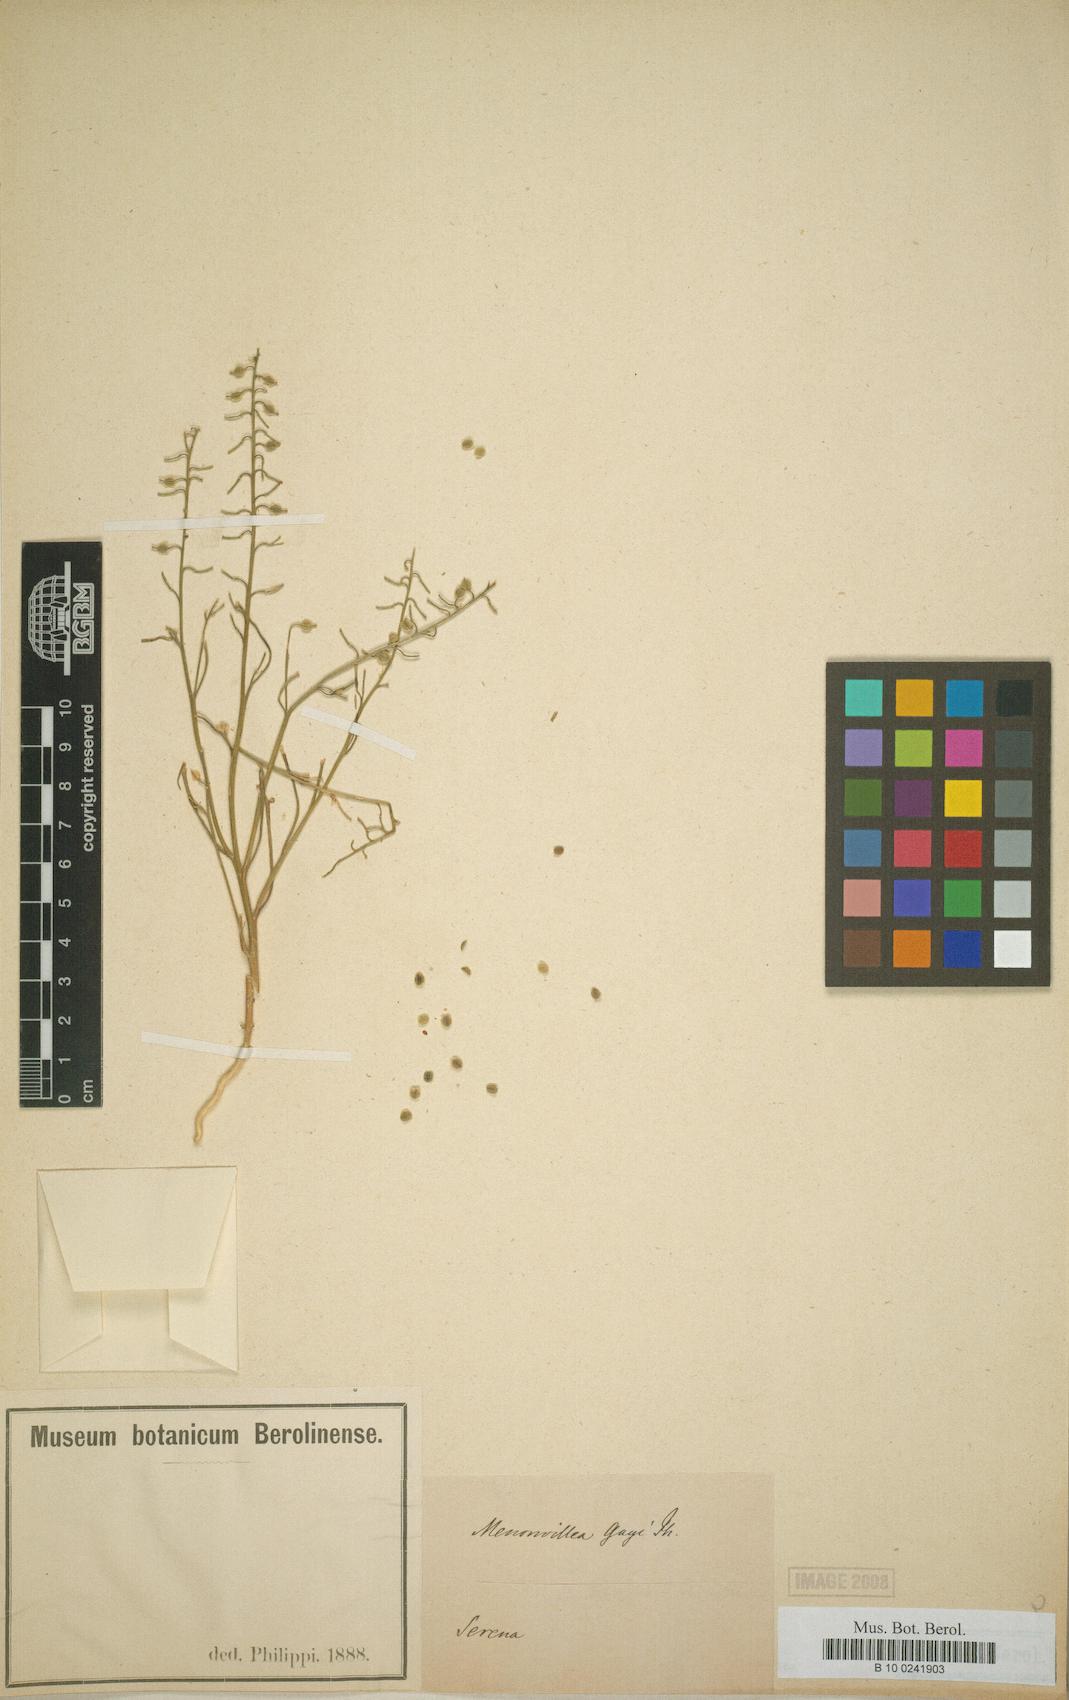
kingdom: Plantae
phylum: Tracheophyta
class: Magnoliopsida
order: Brassicales
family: Brassicaceae
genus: Menonvillea
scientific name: Menonvillea chilensis
